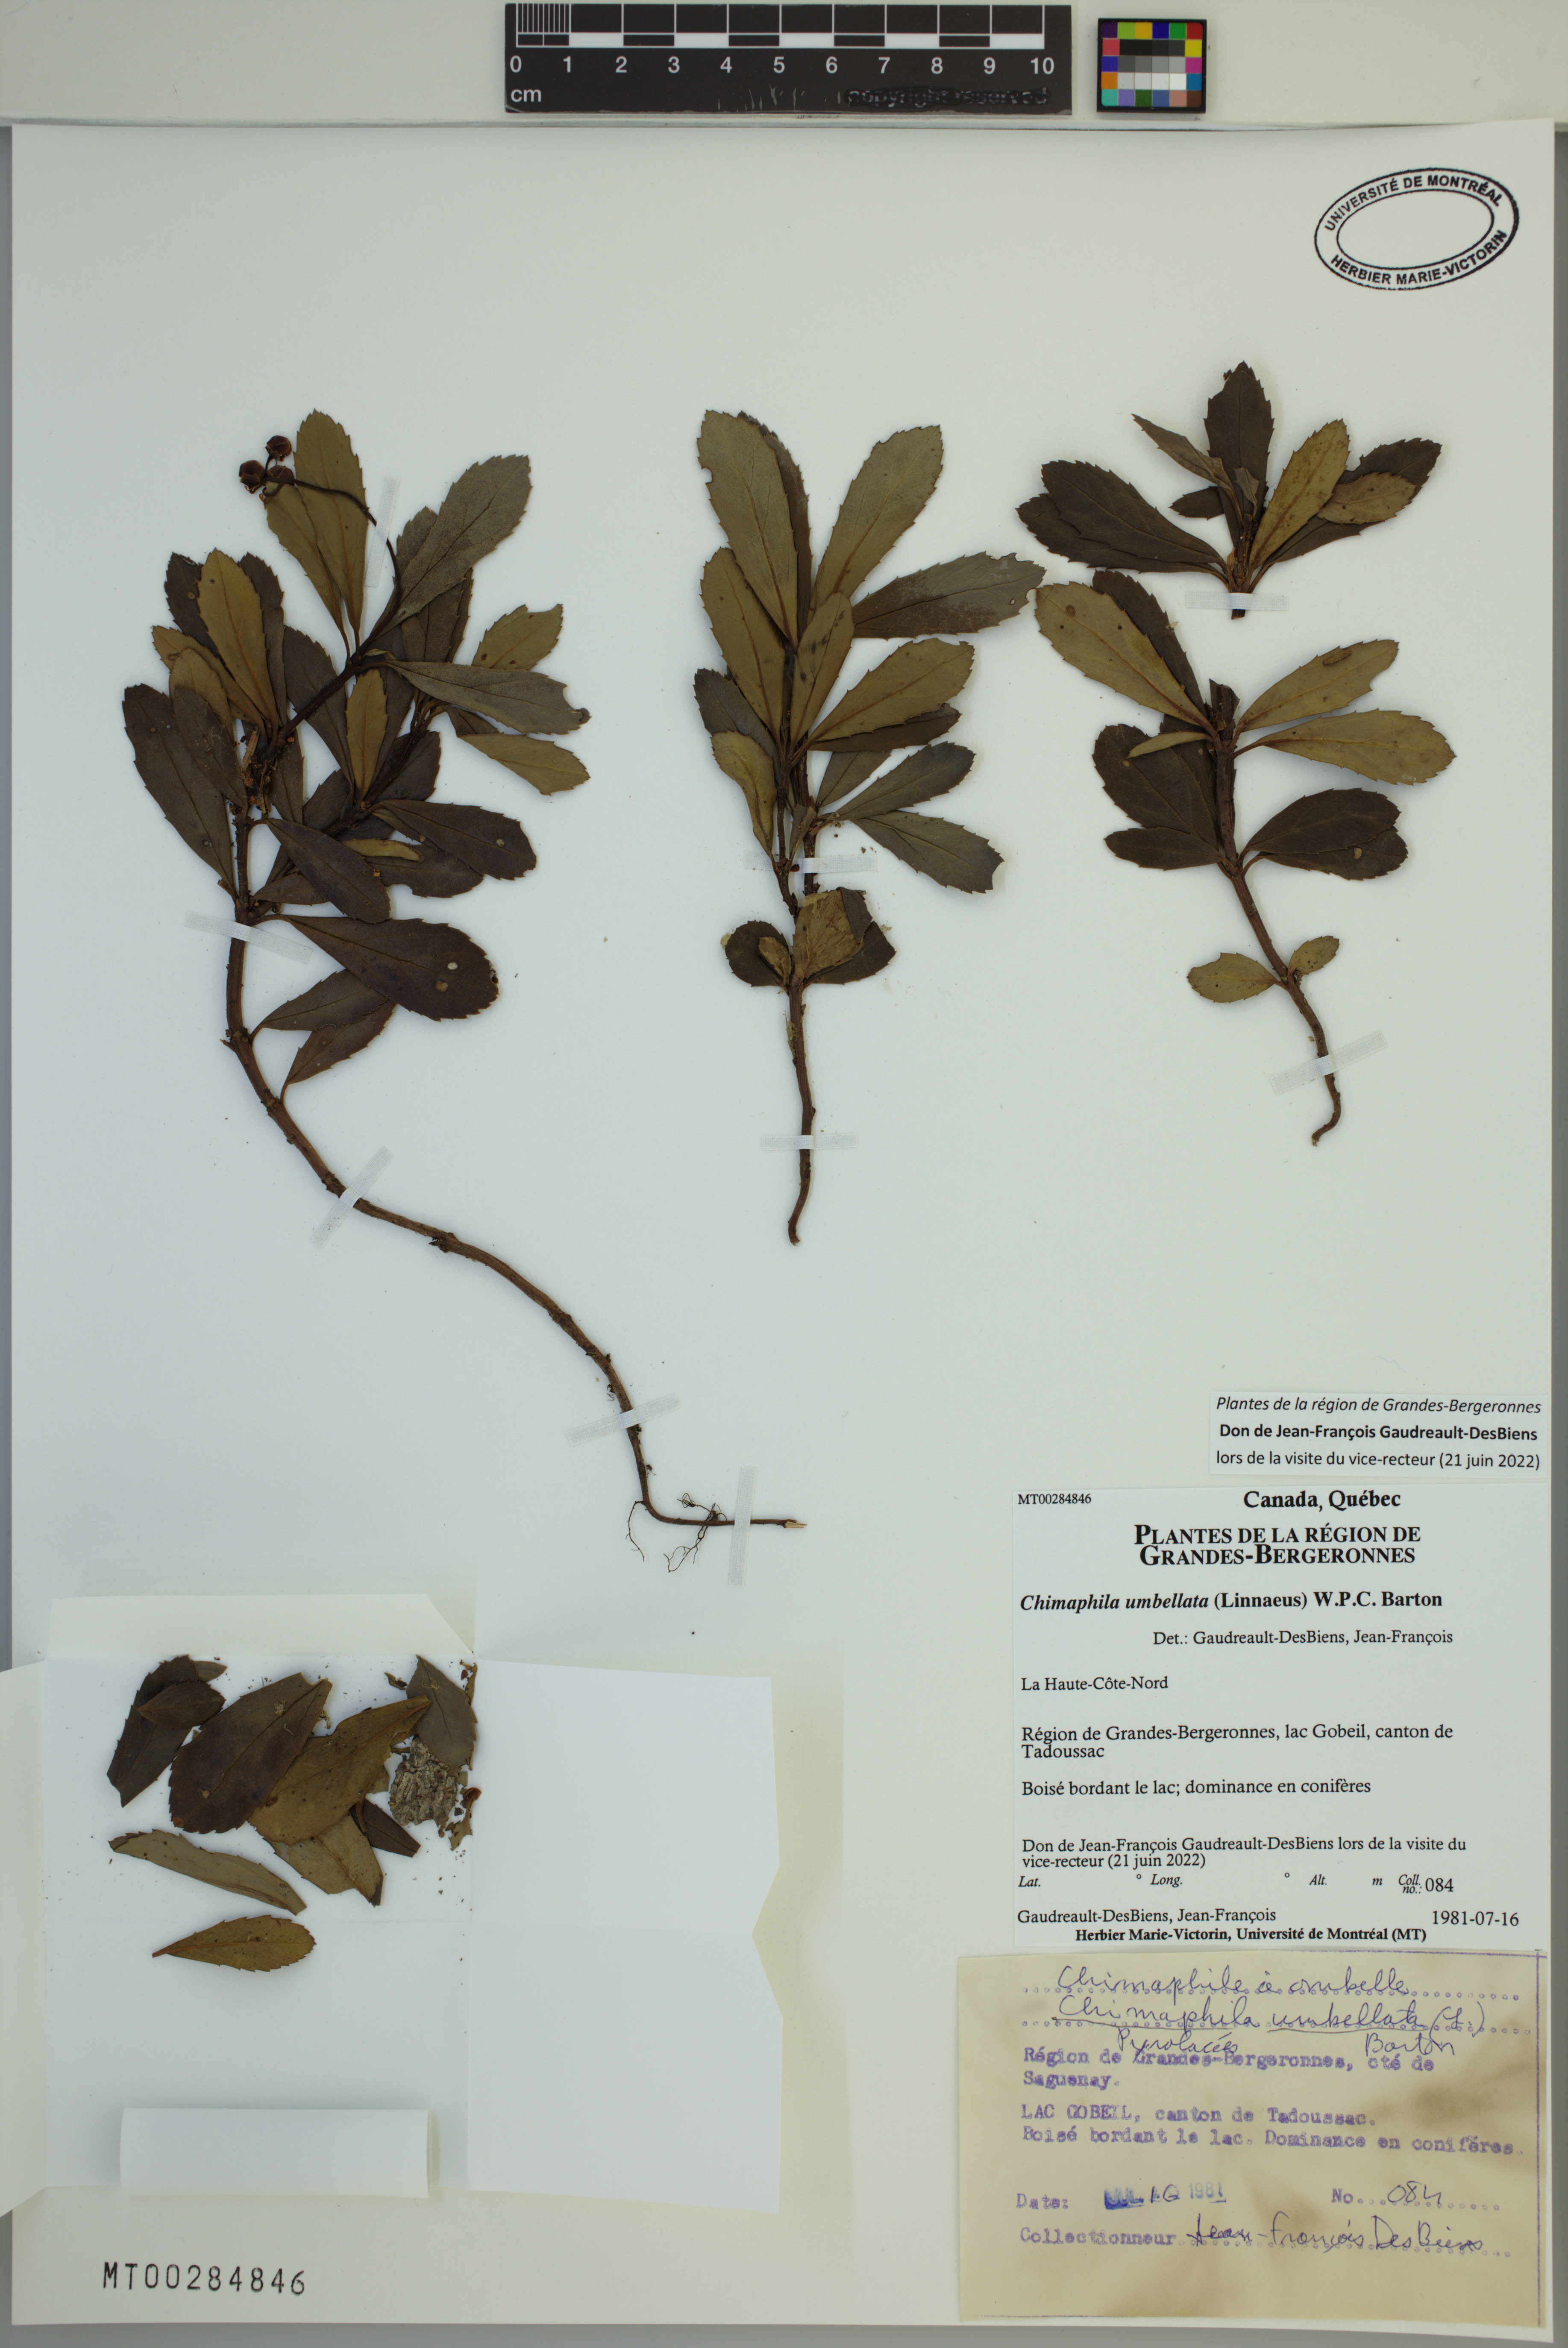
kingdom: Plantae
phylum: Tracheophyta
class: Magnoliopsida
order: Ericales
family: Ericaceae
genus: Chimaphila
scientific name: Chimaphila umbellata
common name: Pipsissewa
